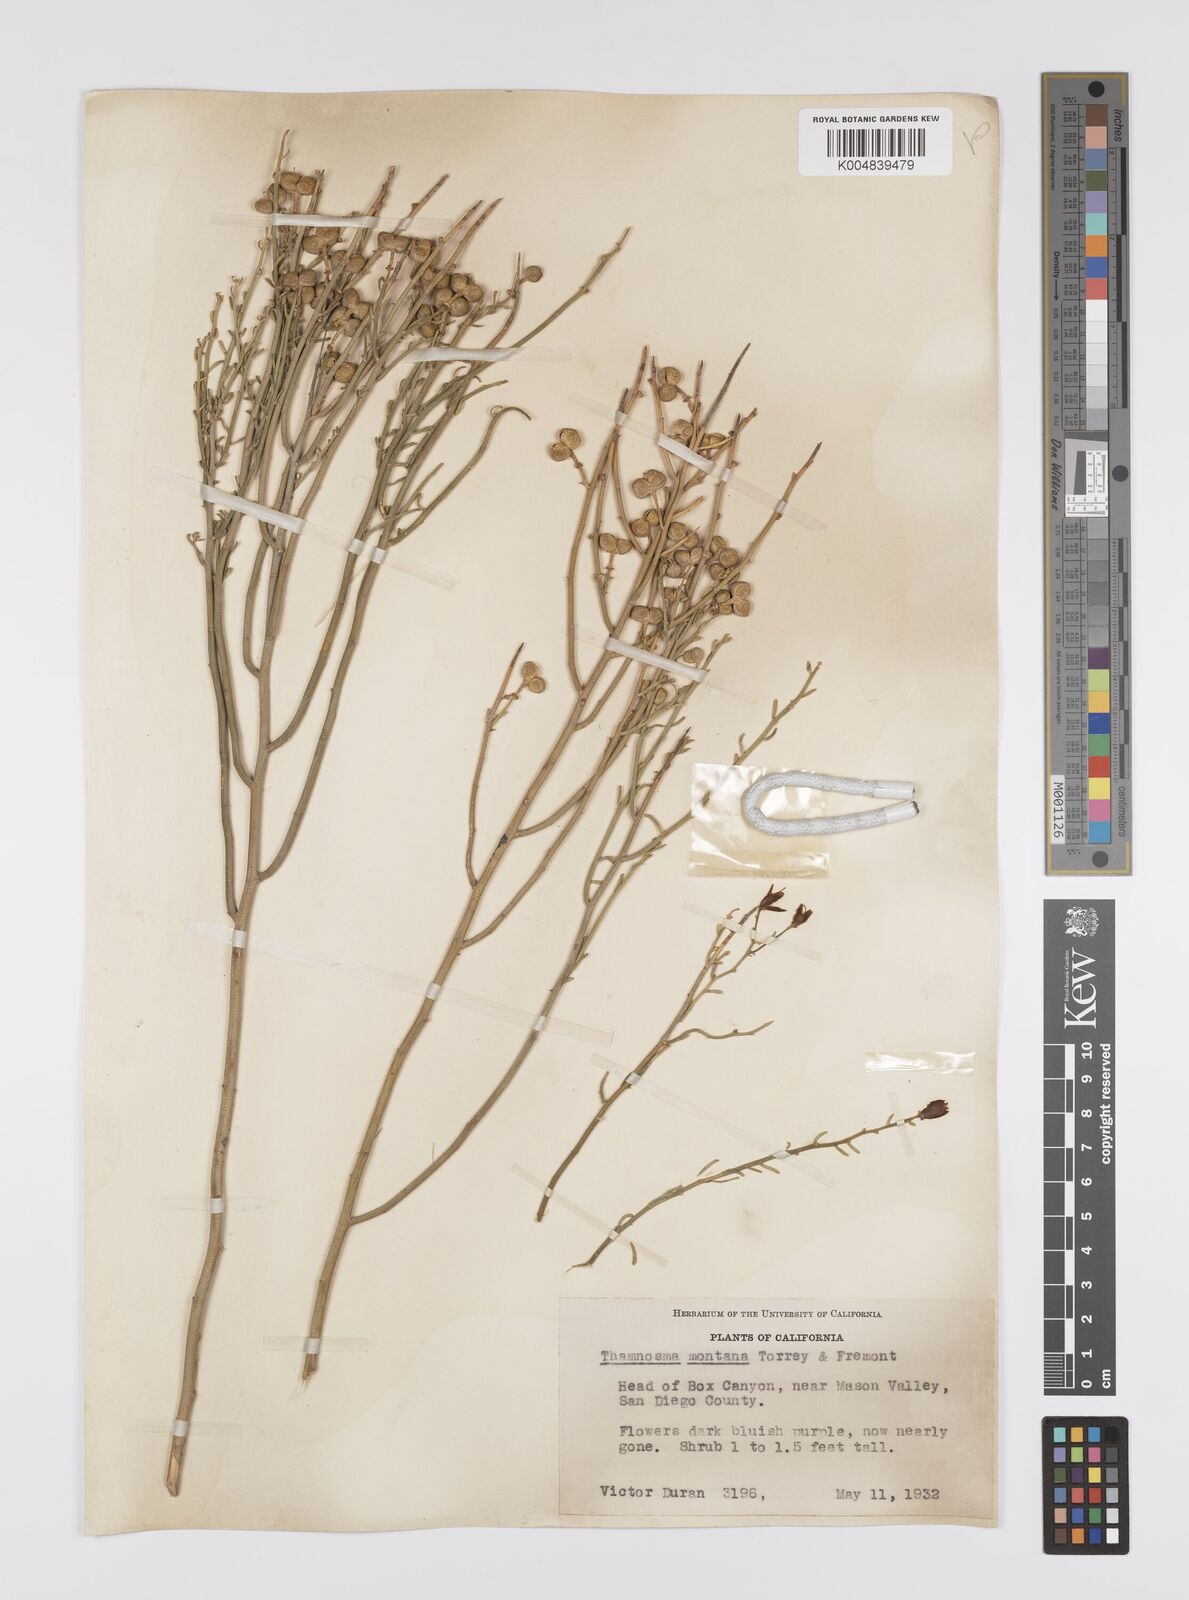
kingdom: Plantae
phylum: Tracheophyta
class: Magnoliopsida
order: Sapindales
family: Rutaceae
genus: Thamnosma
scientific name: Thamnosma montana
